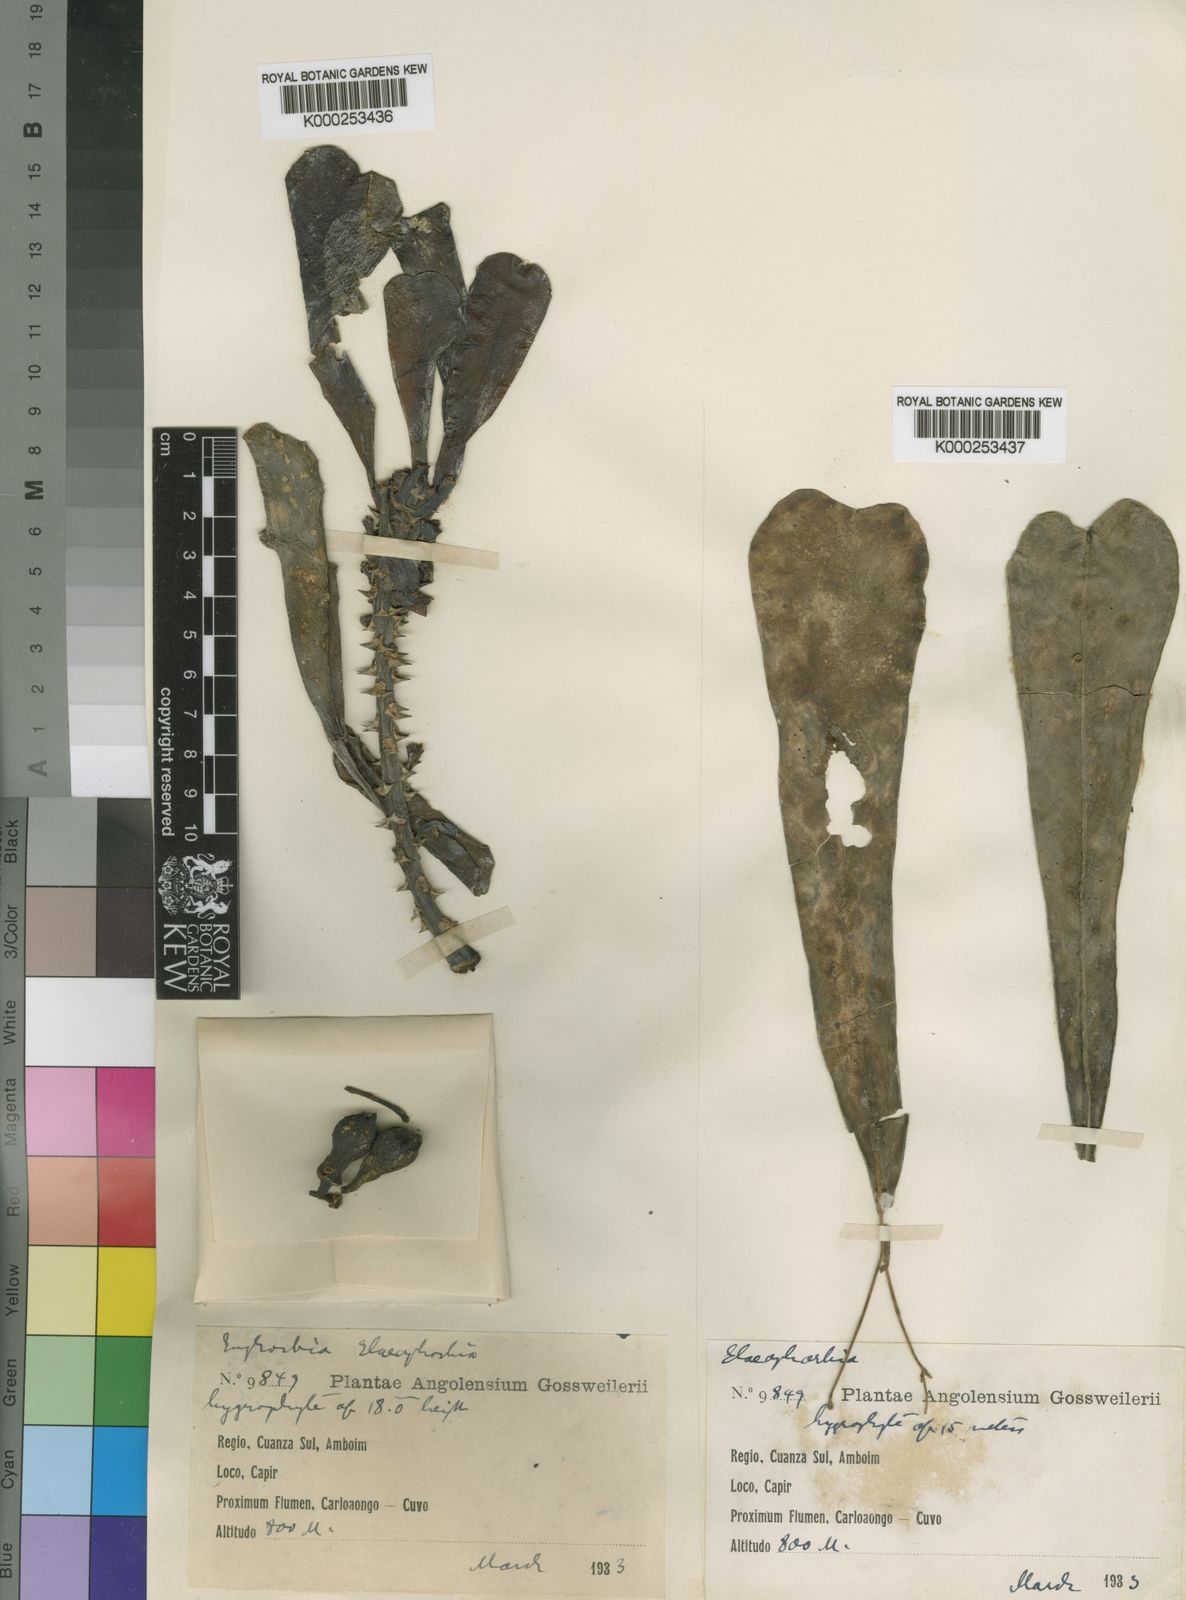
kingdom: Plantae
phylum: Tracheophyta
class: Magnoliopsida
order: Malpighiales
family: Euphorbiaceae
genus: Euphorbia
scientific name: Euphorbia hiernii
